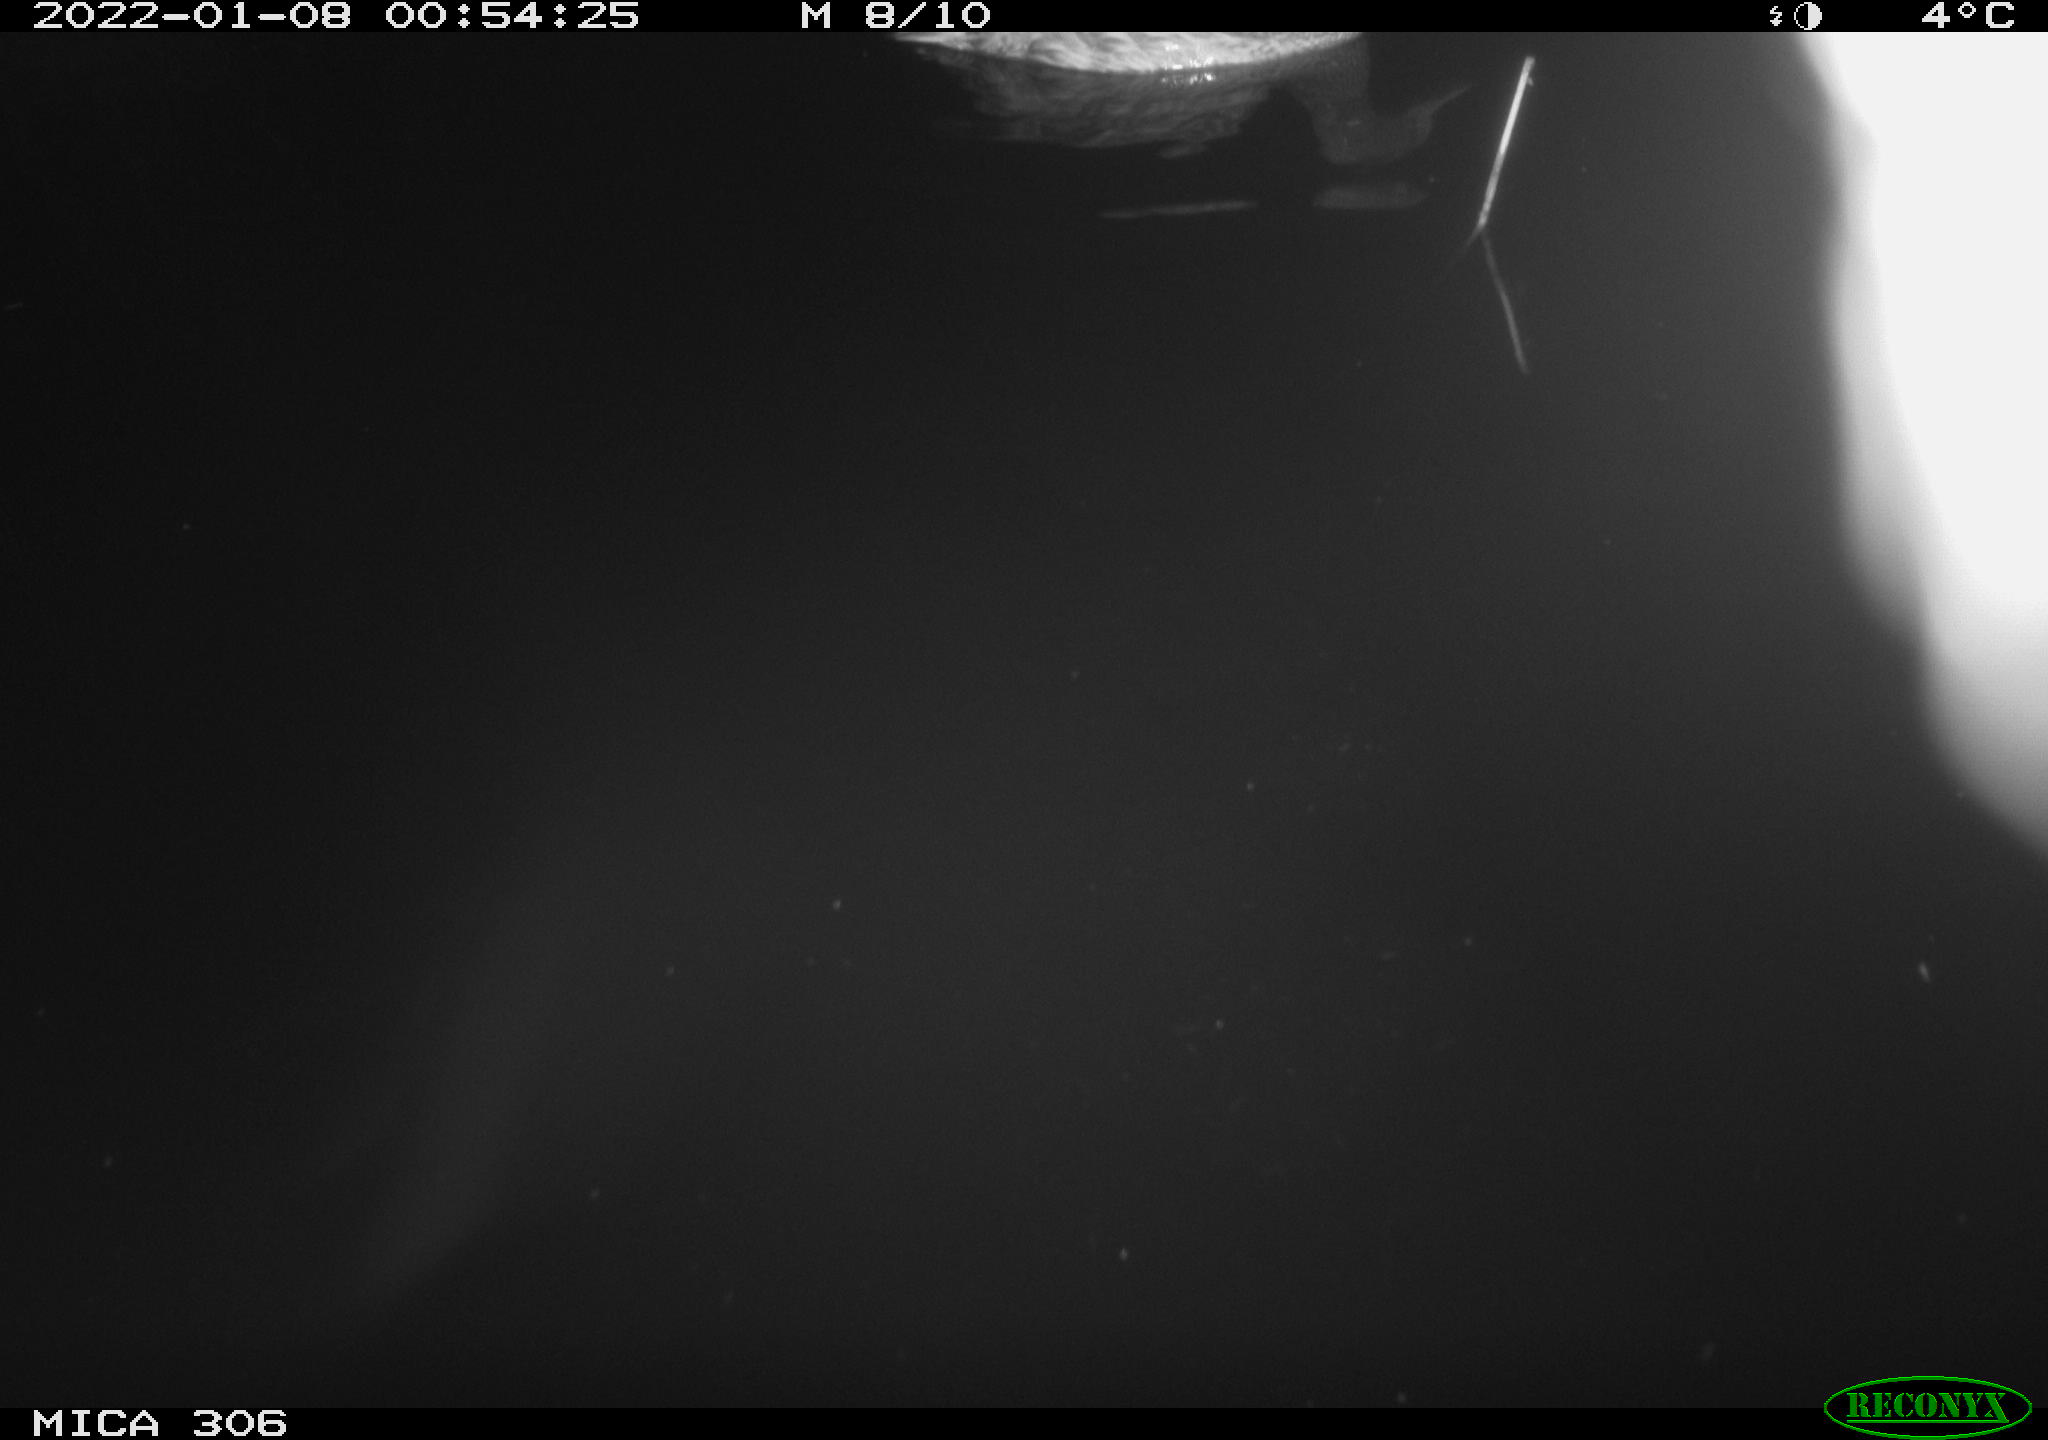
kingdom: Animalia
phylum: Chordata
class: Aves
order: Anseriformes
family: Anatidae
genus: Anas
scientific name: Anas platyrhynchos
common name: Mallard
